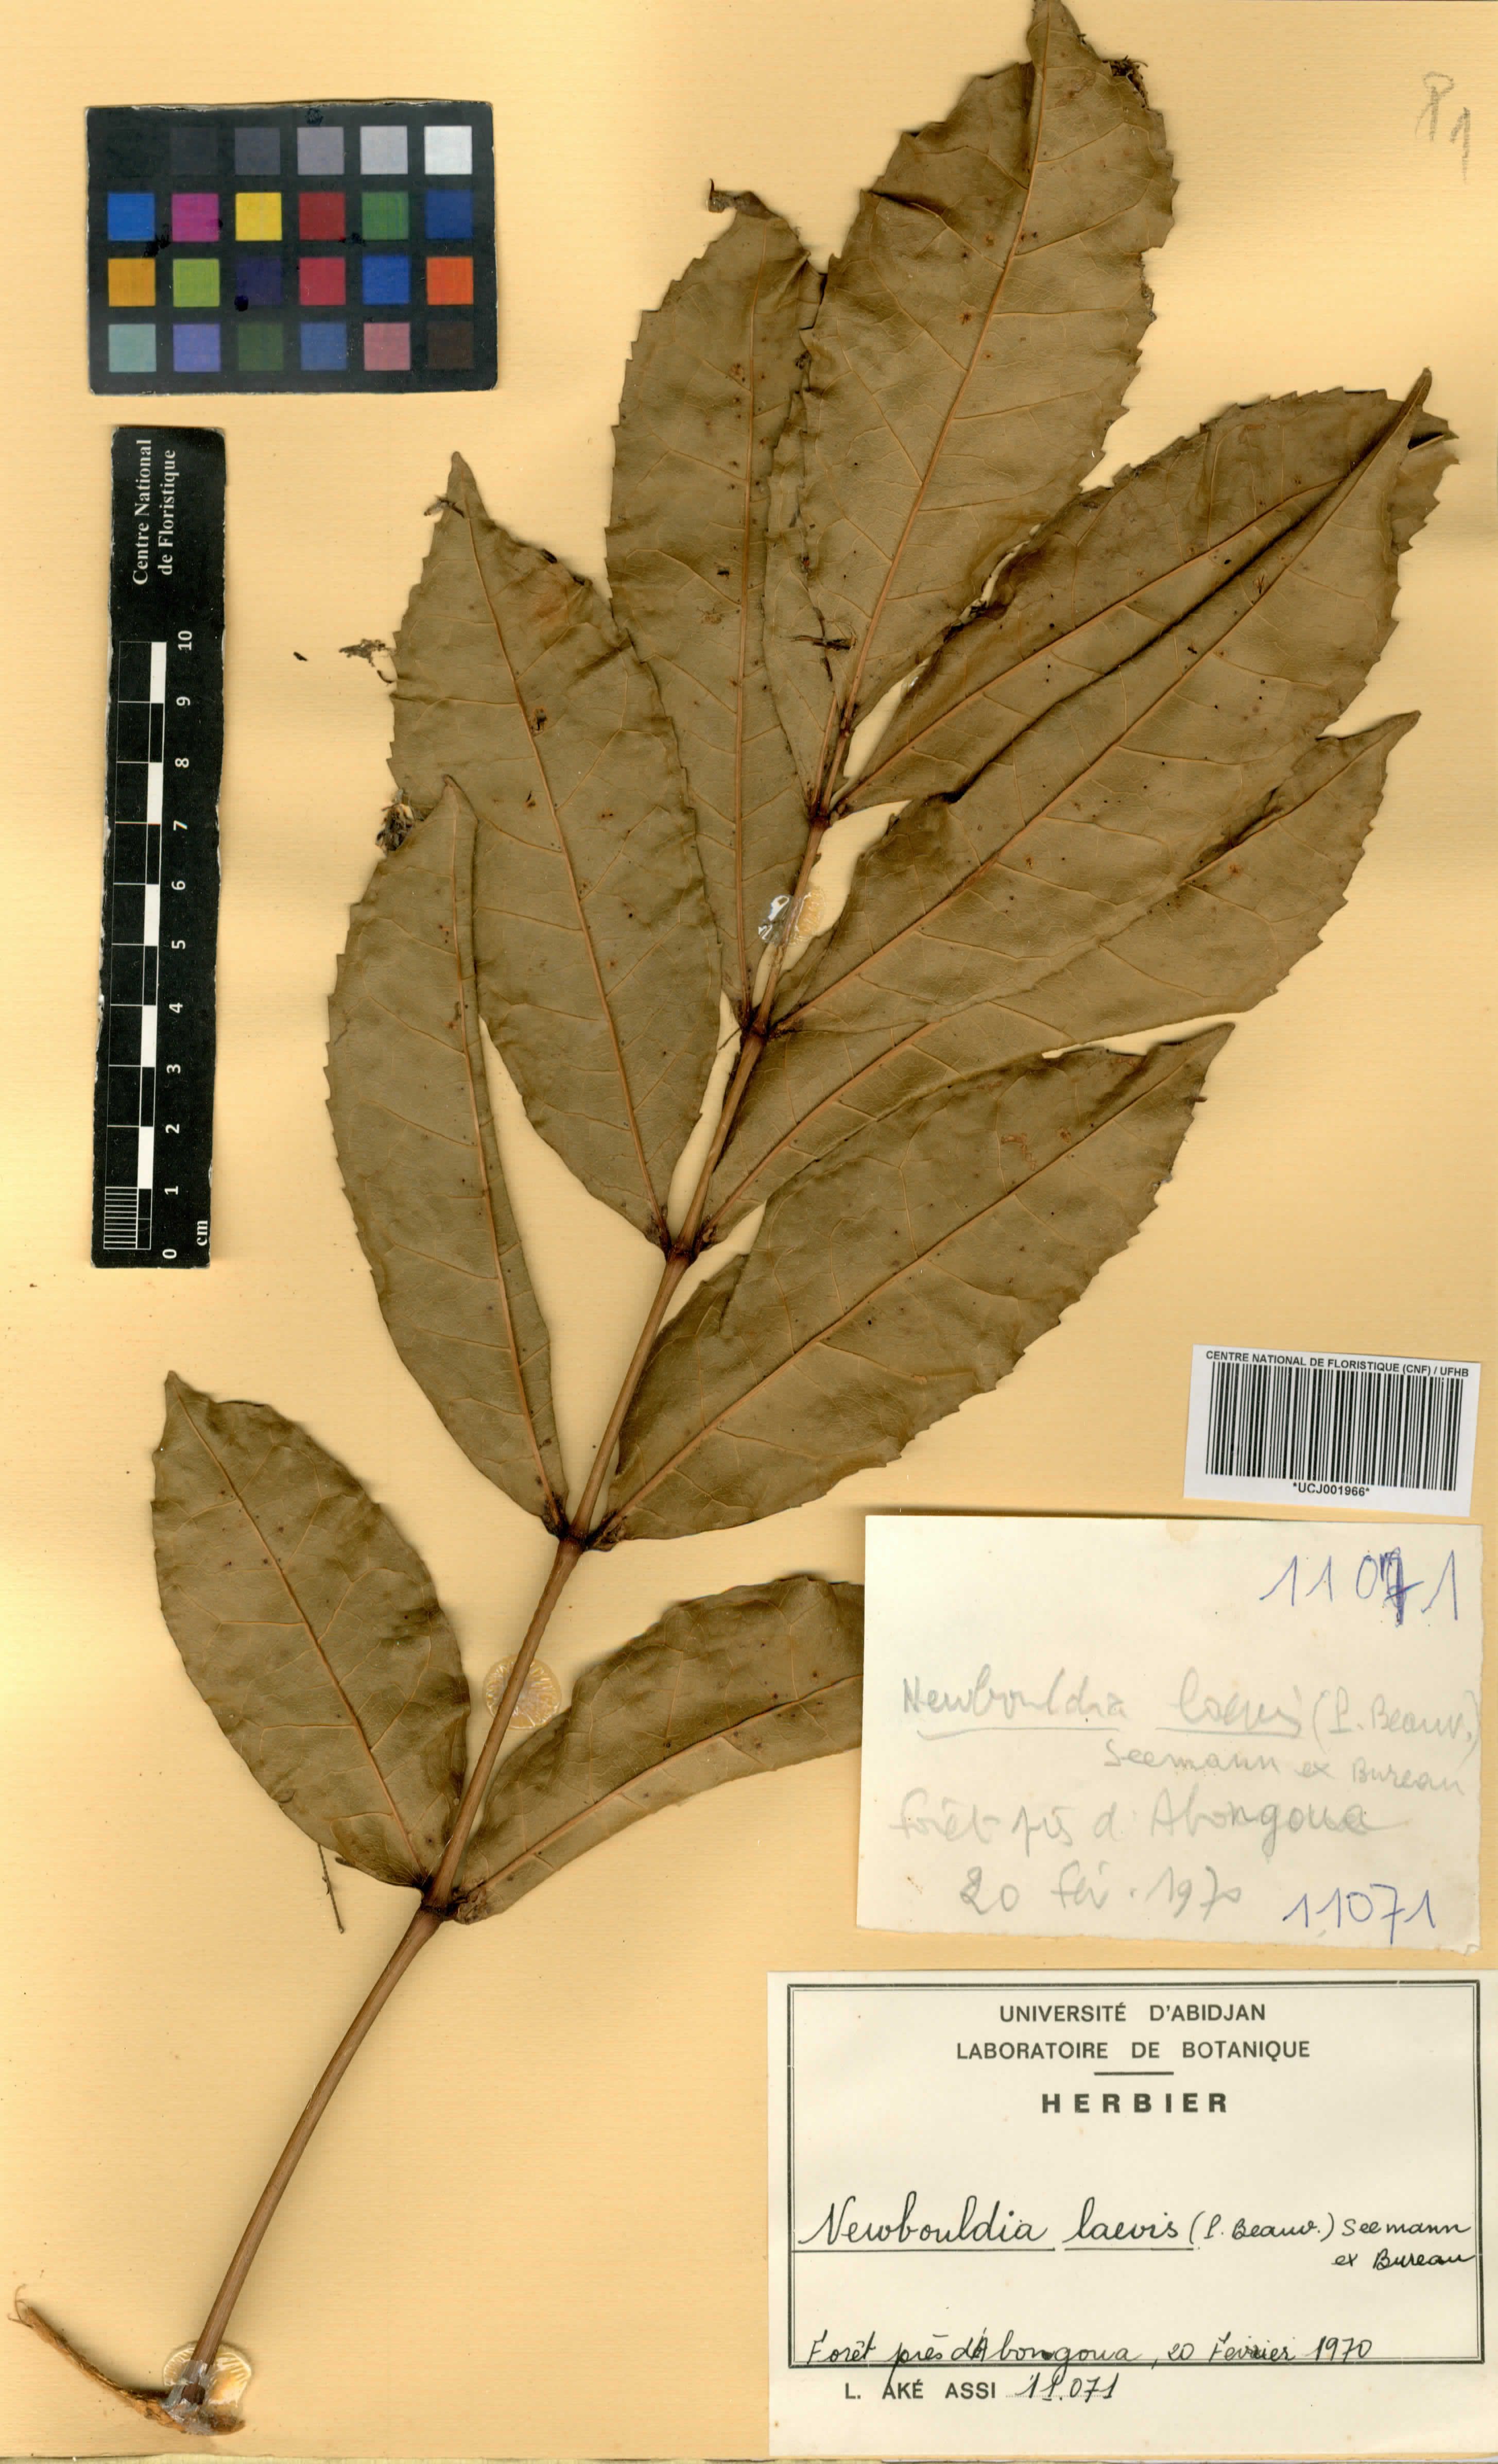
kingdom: Plantae
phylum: Tracheophyta
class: Magnoliopsida
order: Lamiales
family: Bignoniaceae
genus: Newbouldia
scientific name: Newbouldia laevis
